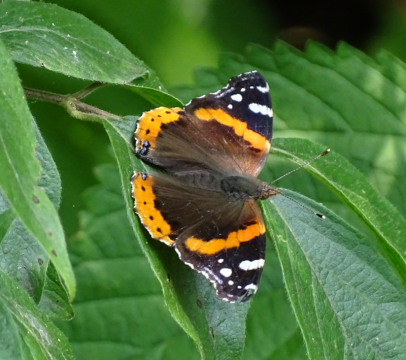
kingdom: Animalia
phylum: Arthropoda
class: Insecta
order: Lepidoptera
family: Nymphalidae
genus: Vanessa
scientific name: Vanessa atalanta
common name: Red Admiral
